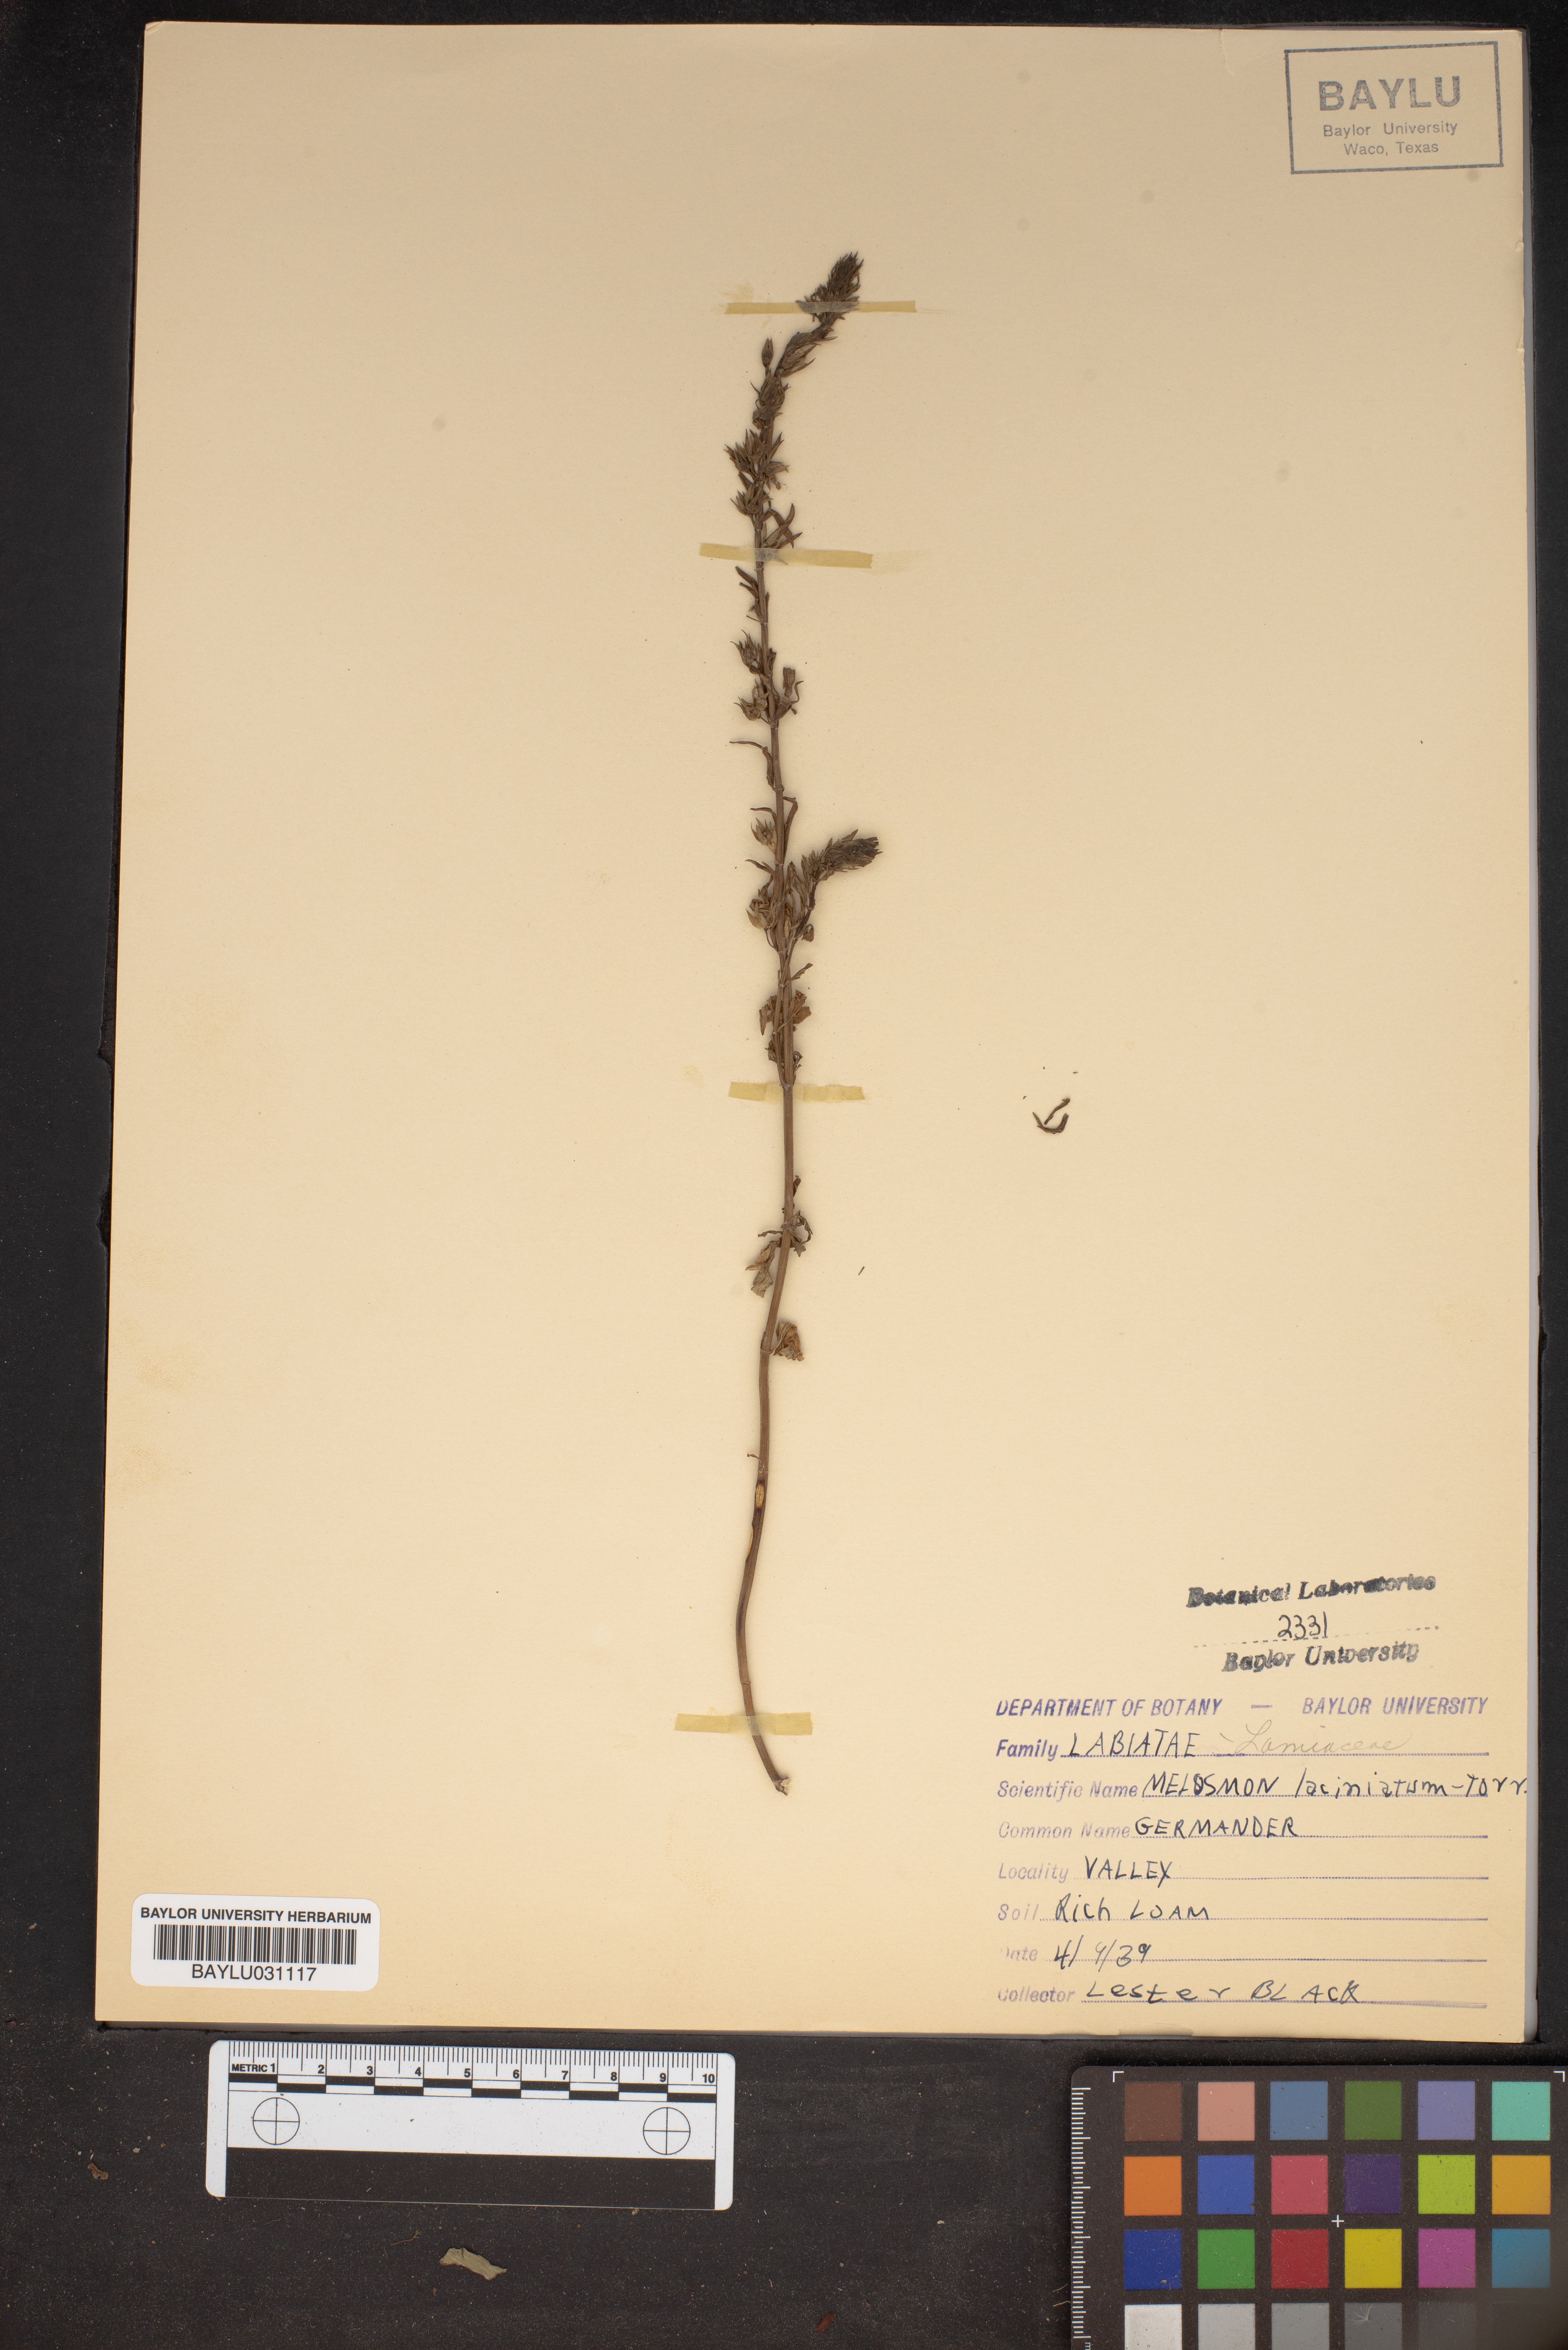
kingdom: Plantae
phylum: Tracheophyta
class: Magnoliopsida
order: Lamiales
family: Lamiaceae
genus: Teucrium
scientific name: Teucrium laciniatum
